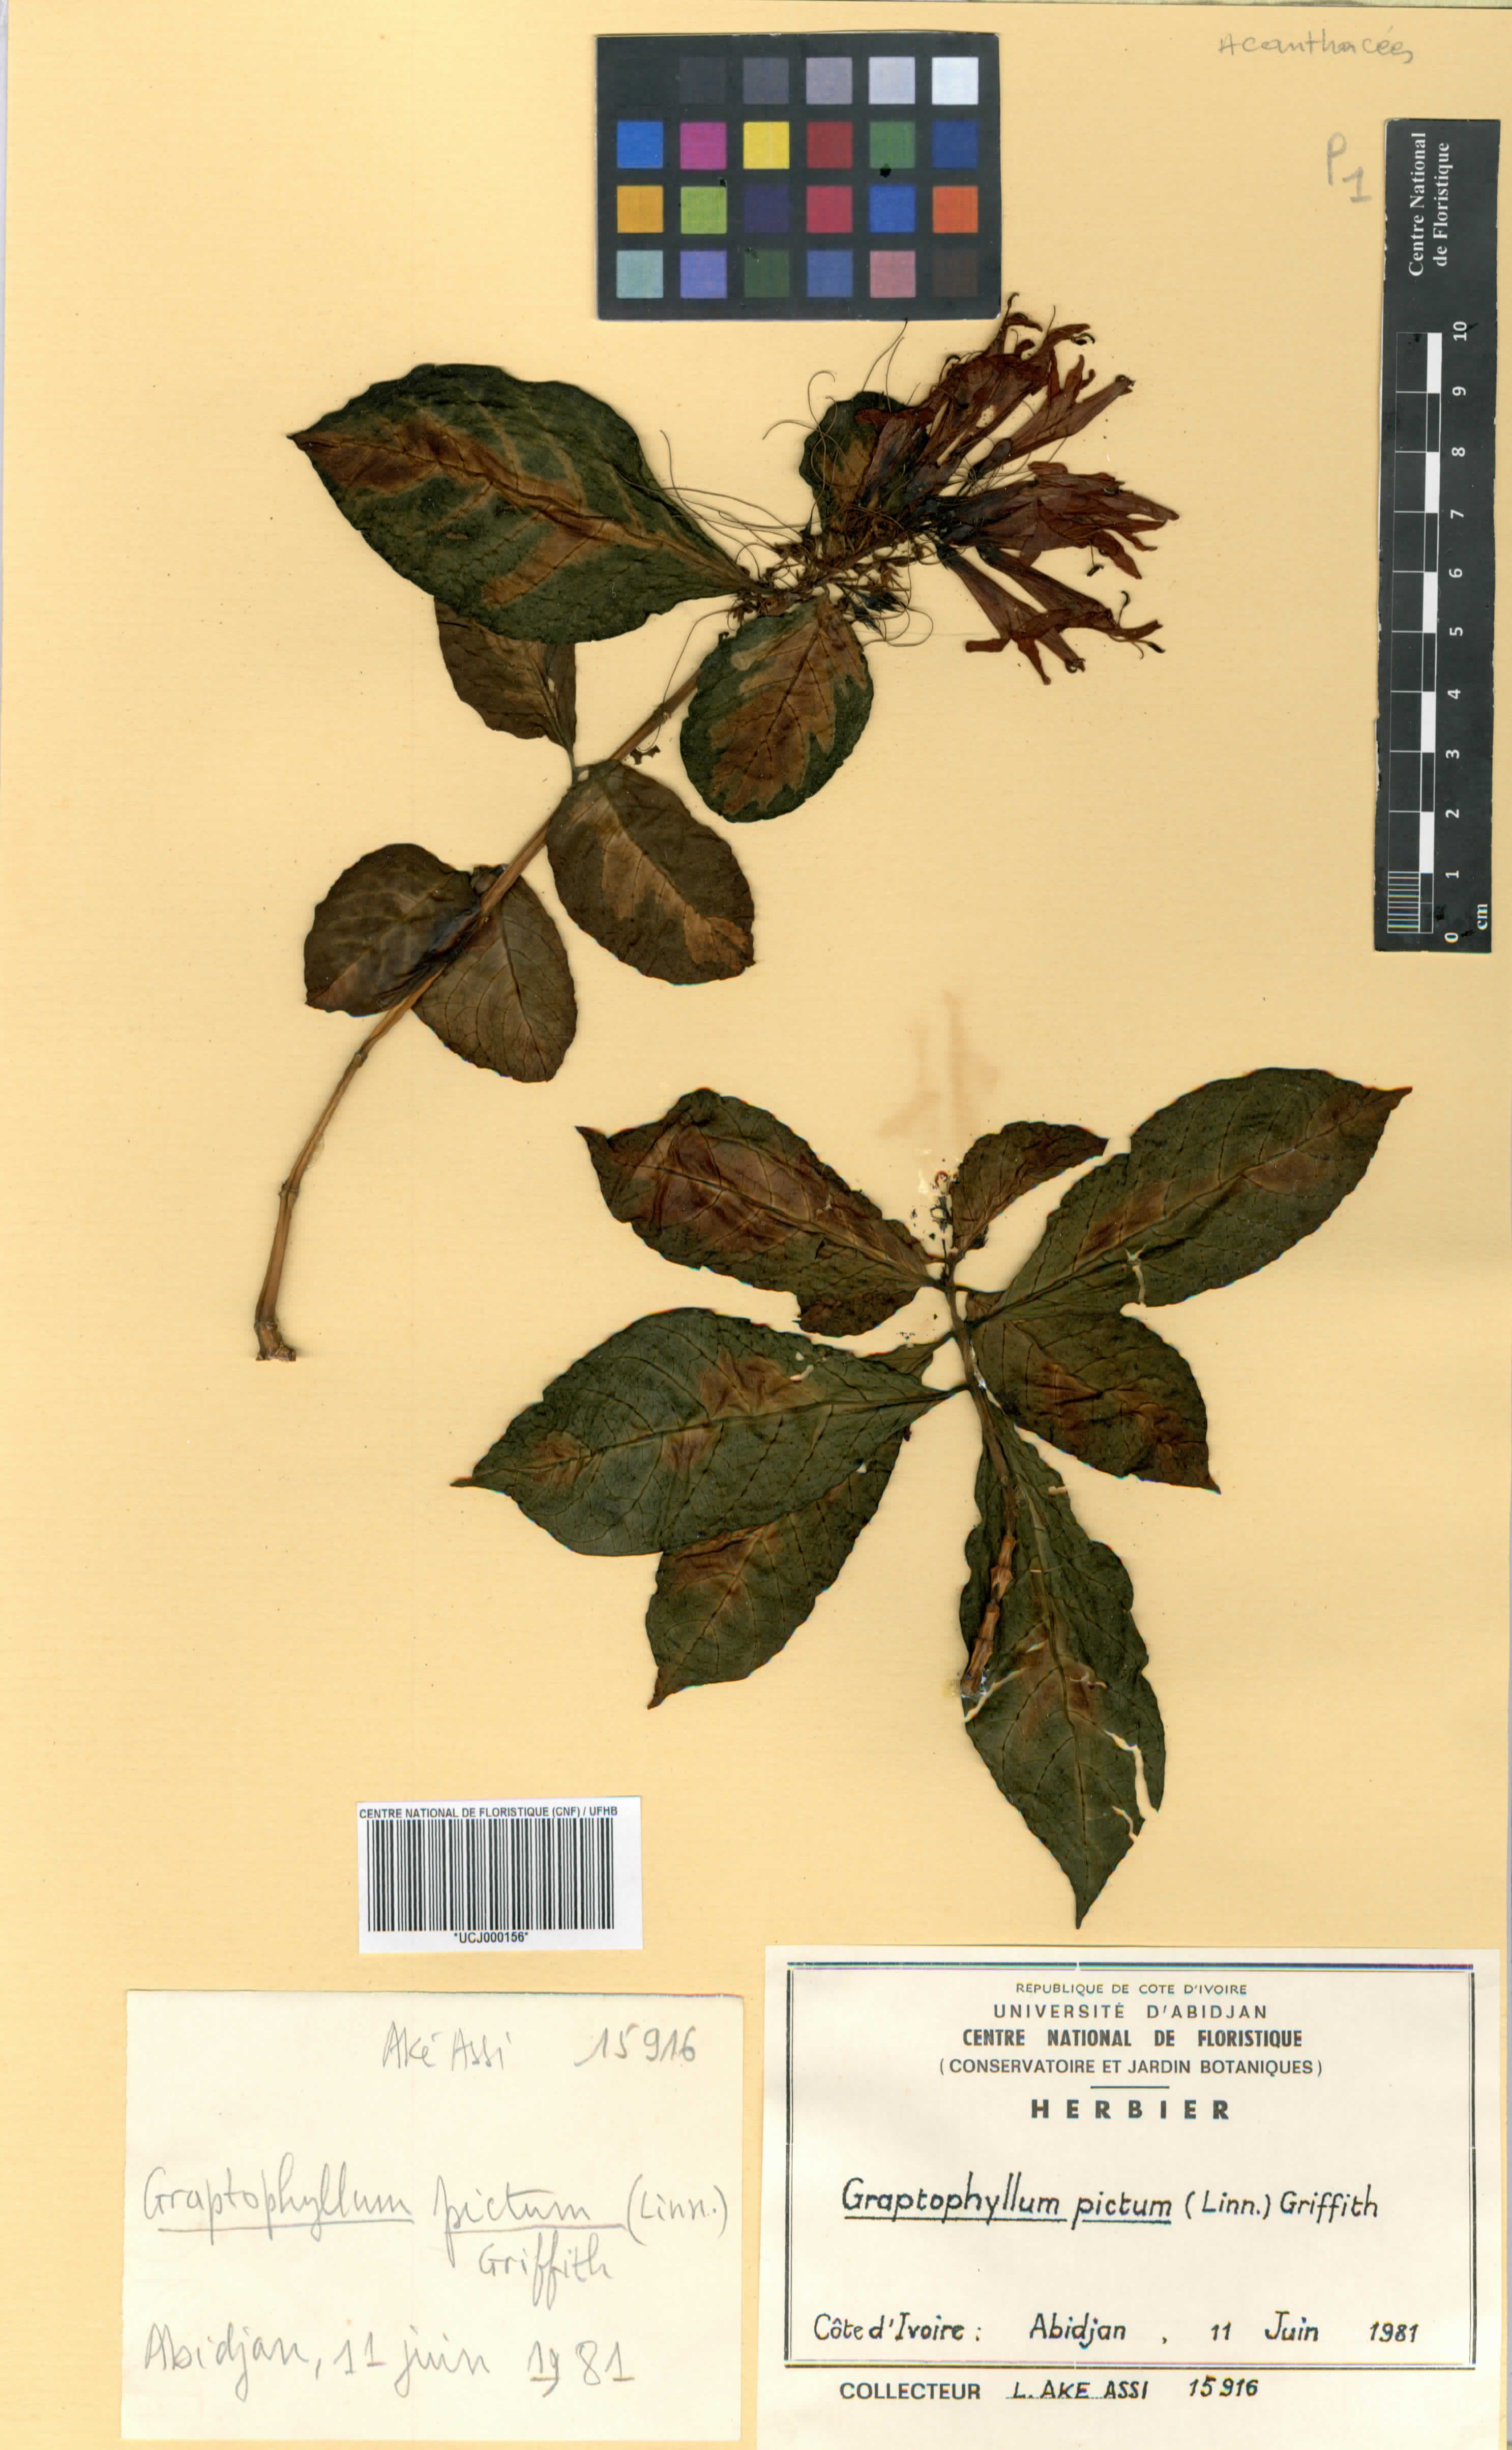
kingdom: Plantae
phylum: Tracheophyta
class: Magnoliopsida
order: Lamiales
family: Acanthaceae
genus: Graptophyllum
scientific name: Graptophyllum pictum
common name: Caricature-plant
